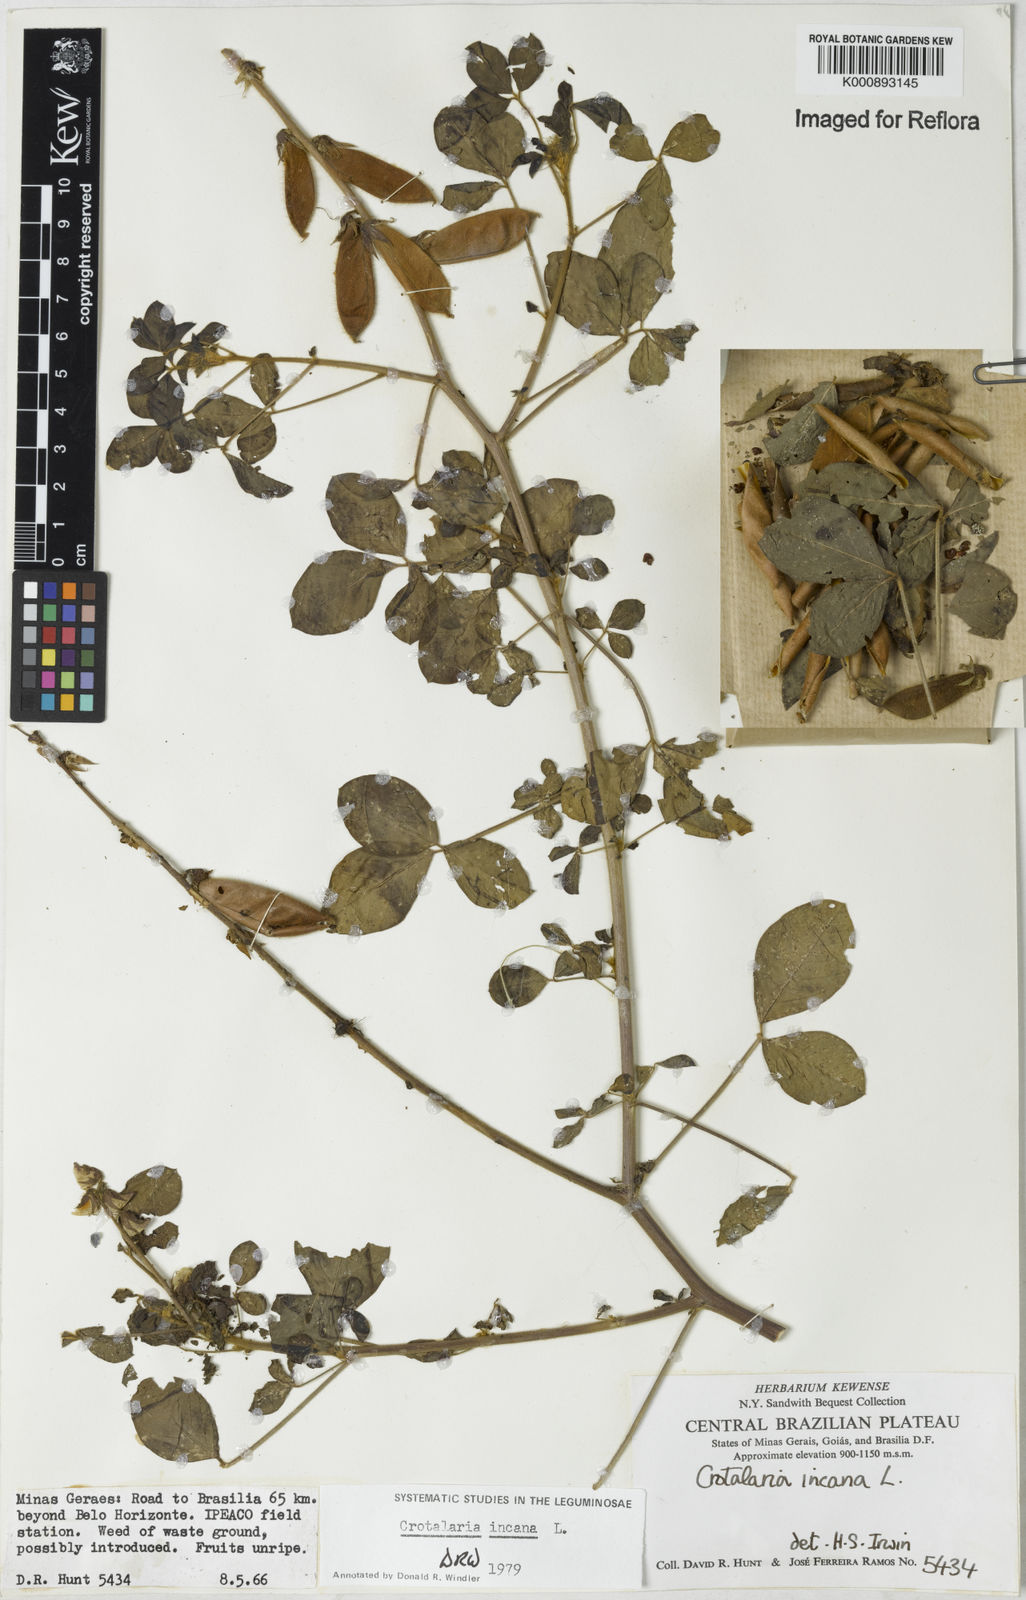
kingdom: Plantae
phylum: Tracheophyta
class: Magnoliopsida
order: Fabales
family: Fabaceae
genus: Crotalaria
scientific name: Crotalaria incana
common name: Shakeshake
